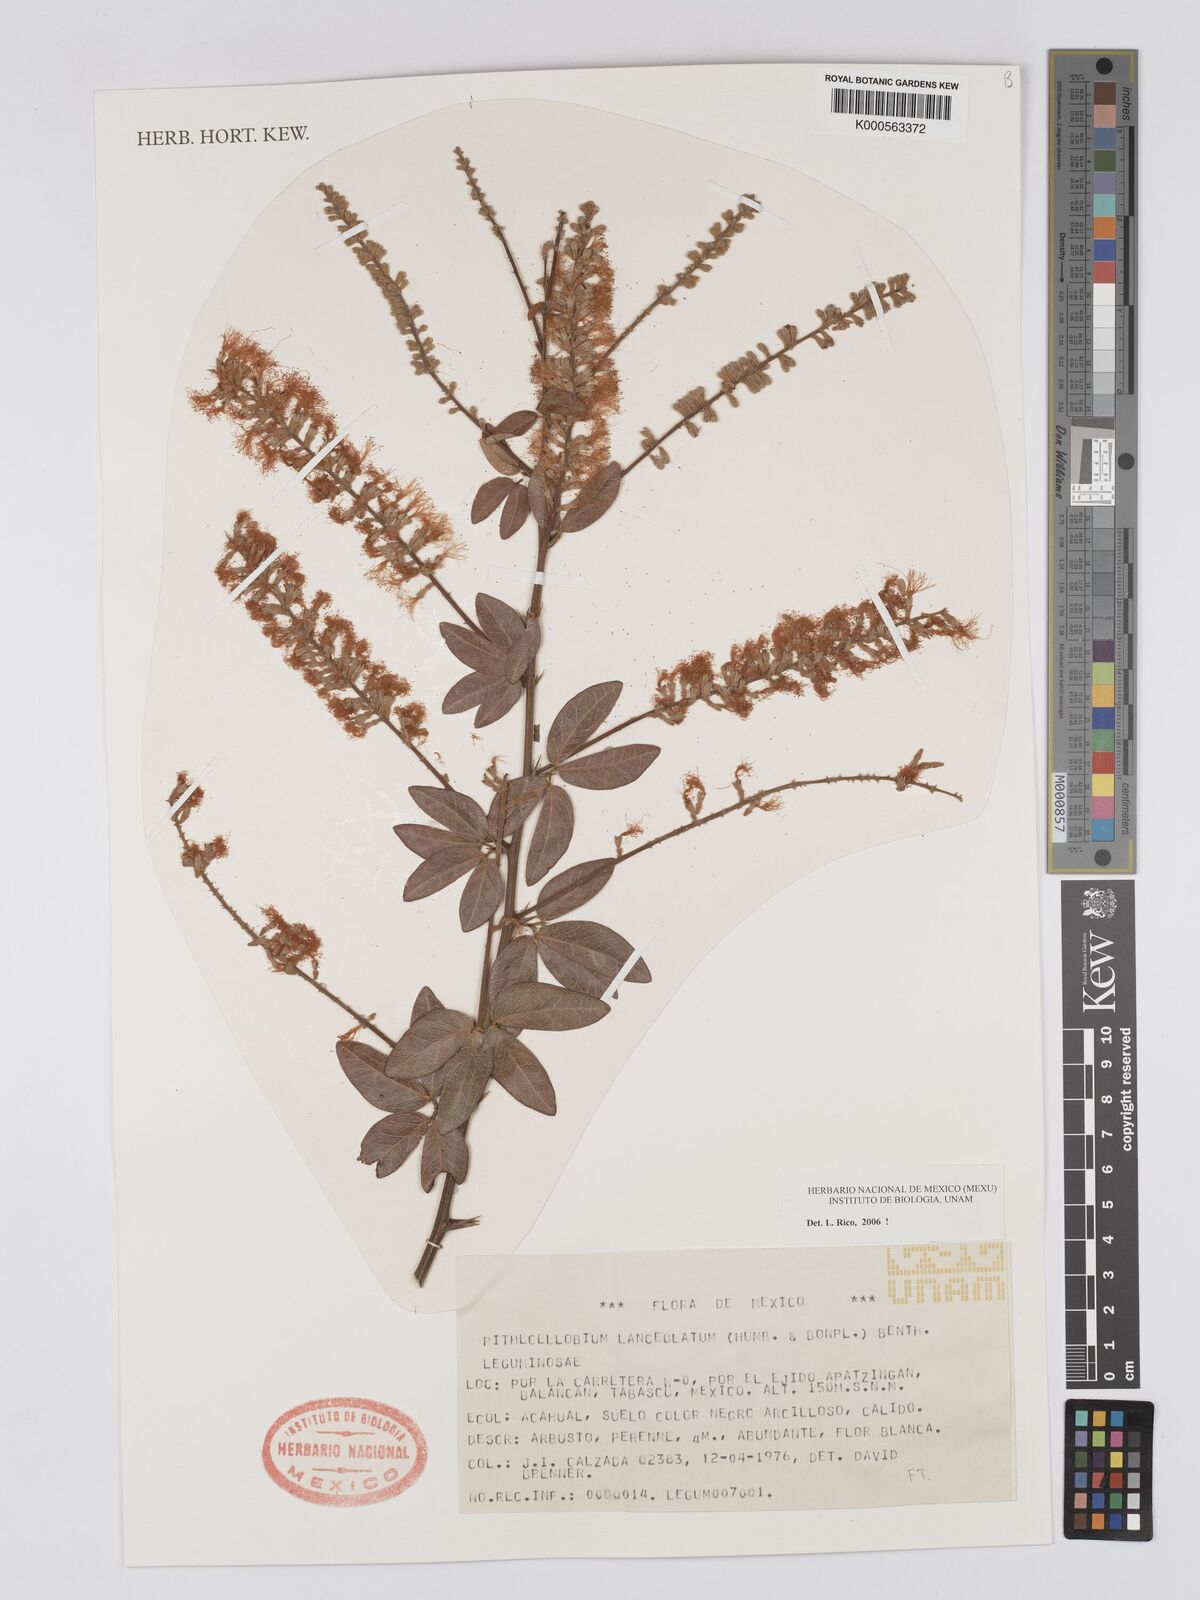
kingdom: Plantae
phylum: Tracheophyta
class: Magnoliopsida
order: Fabales
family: Fabaceae
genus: Pithecellobium
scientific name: Pithecellobium lanceolatum
